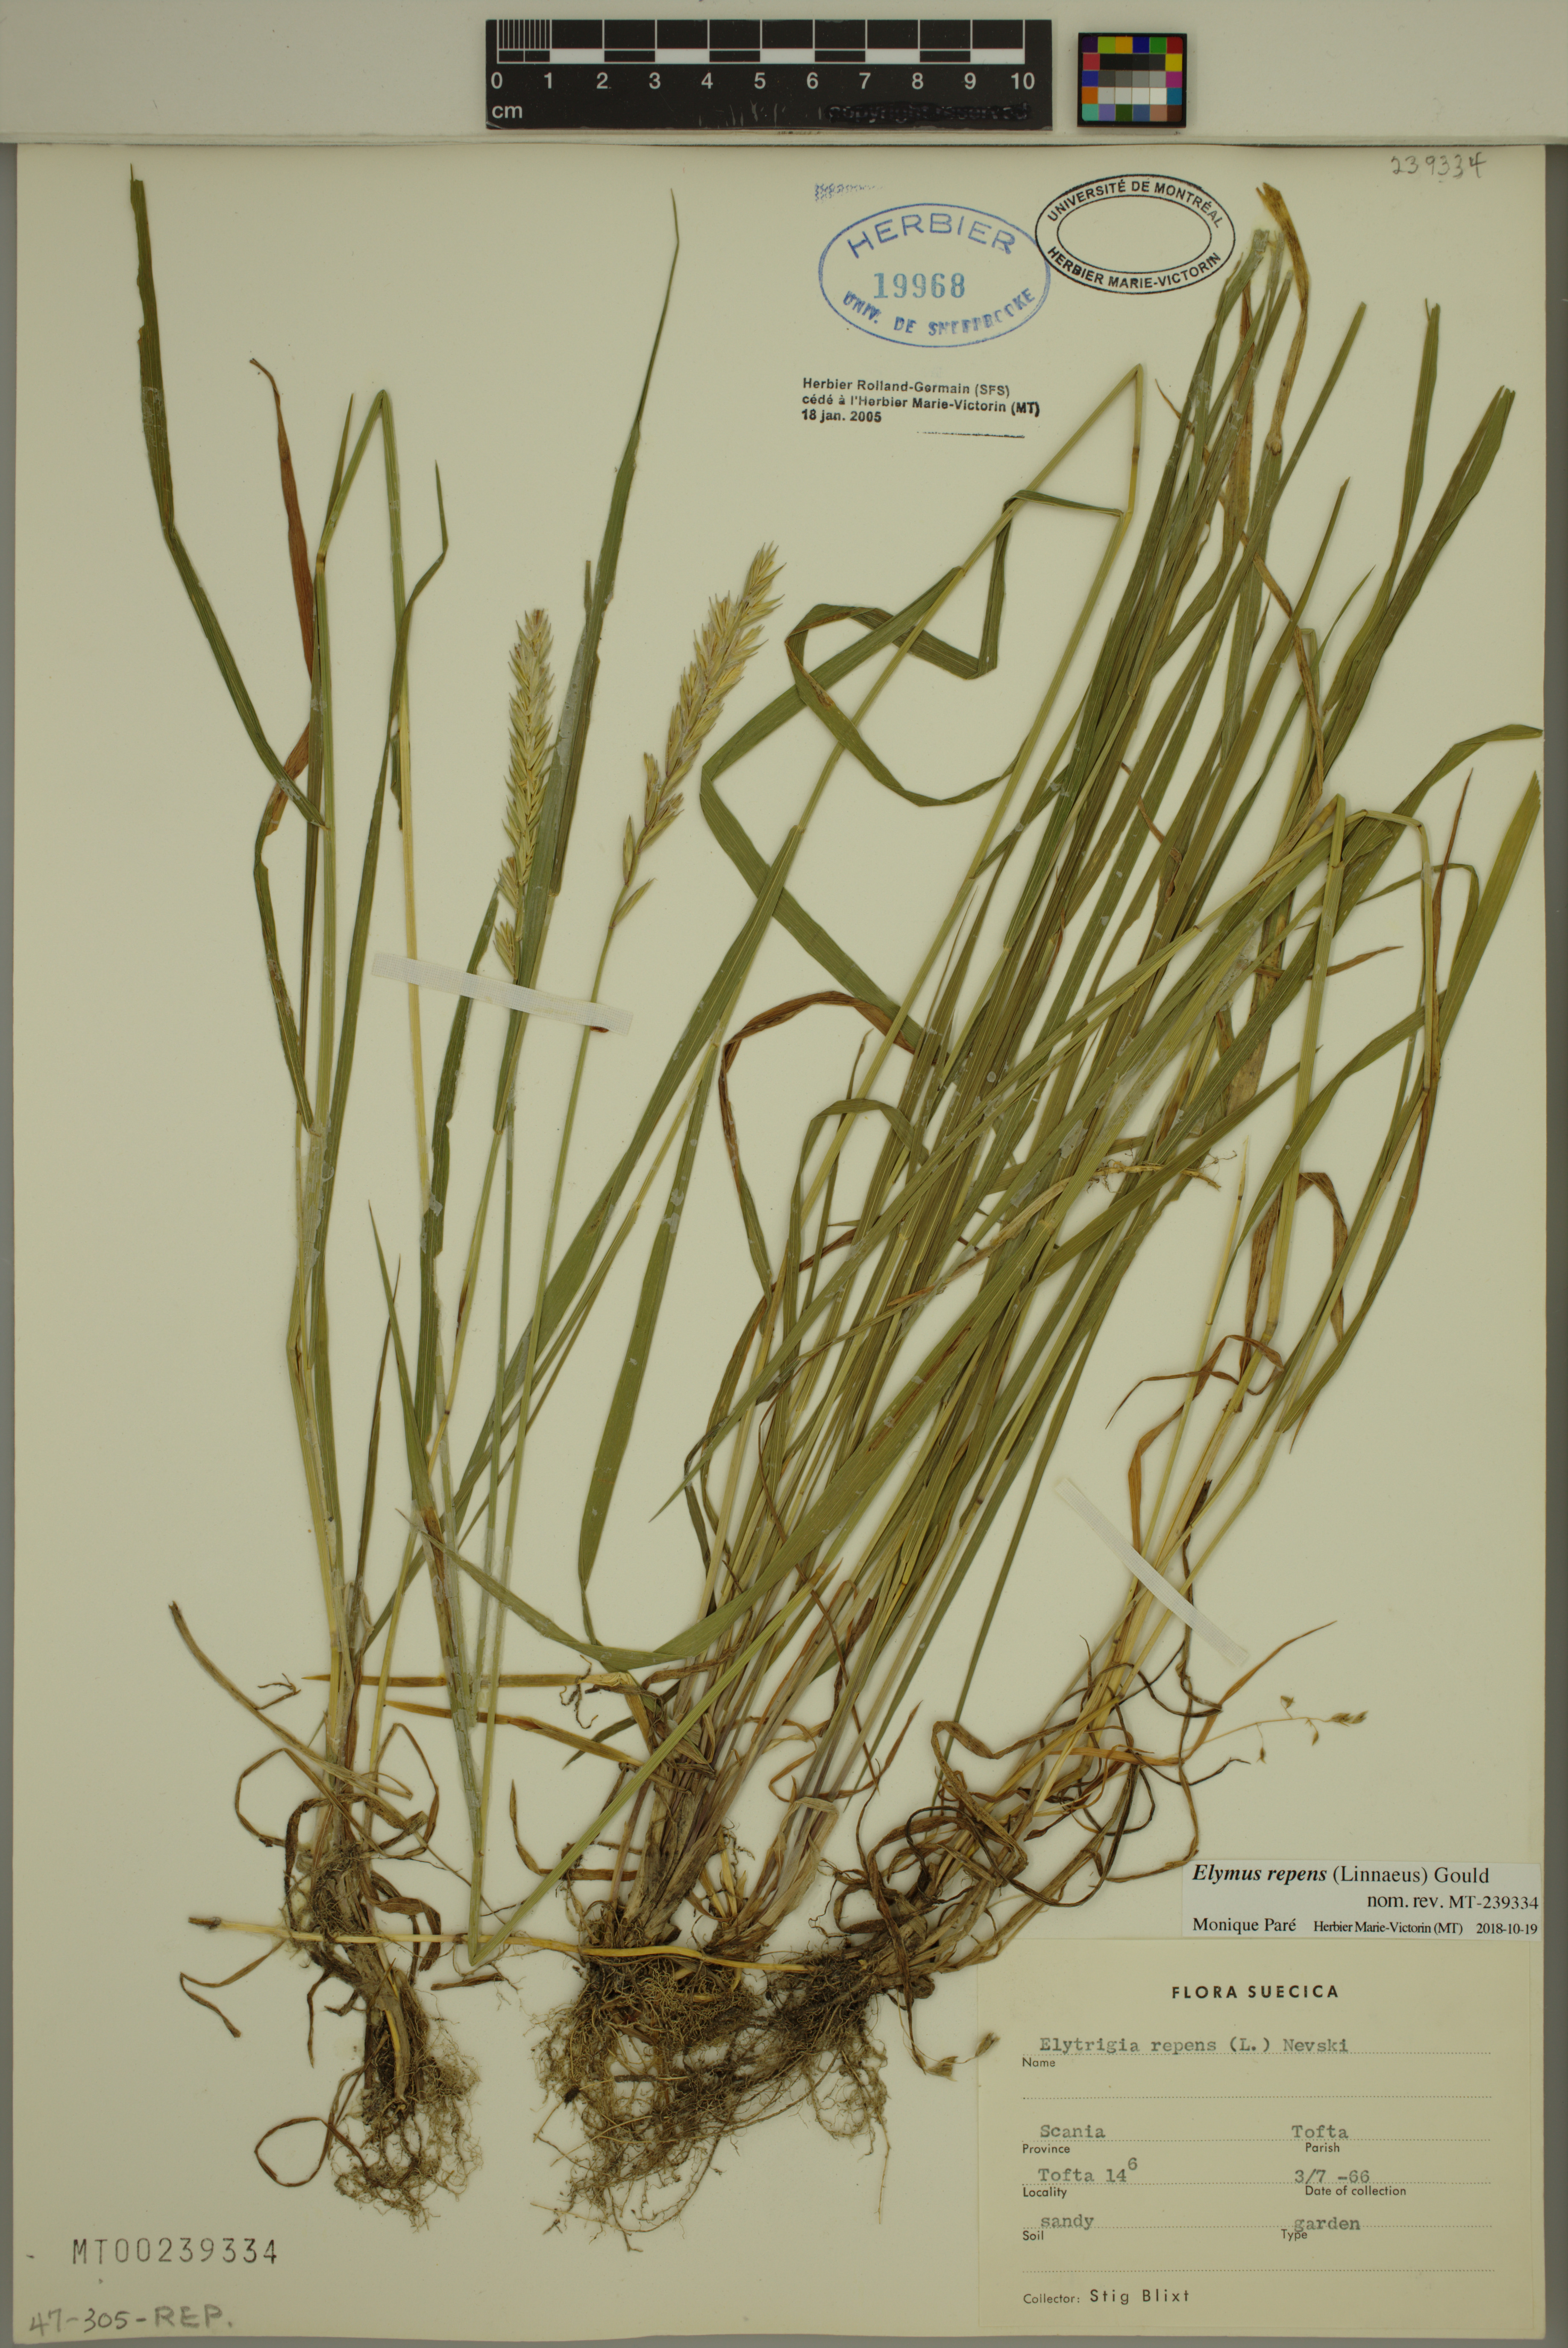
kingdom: Plantae
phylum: Tracheophyta
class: Liliopsida
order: Poales
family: Poaceae
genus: Elymus
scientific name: Elymus repens
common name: Quackgrass
